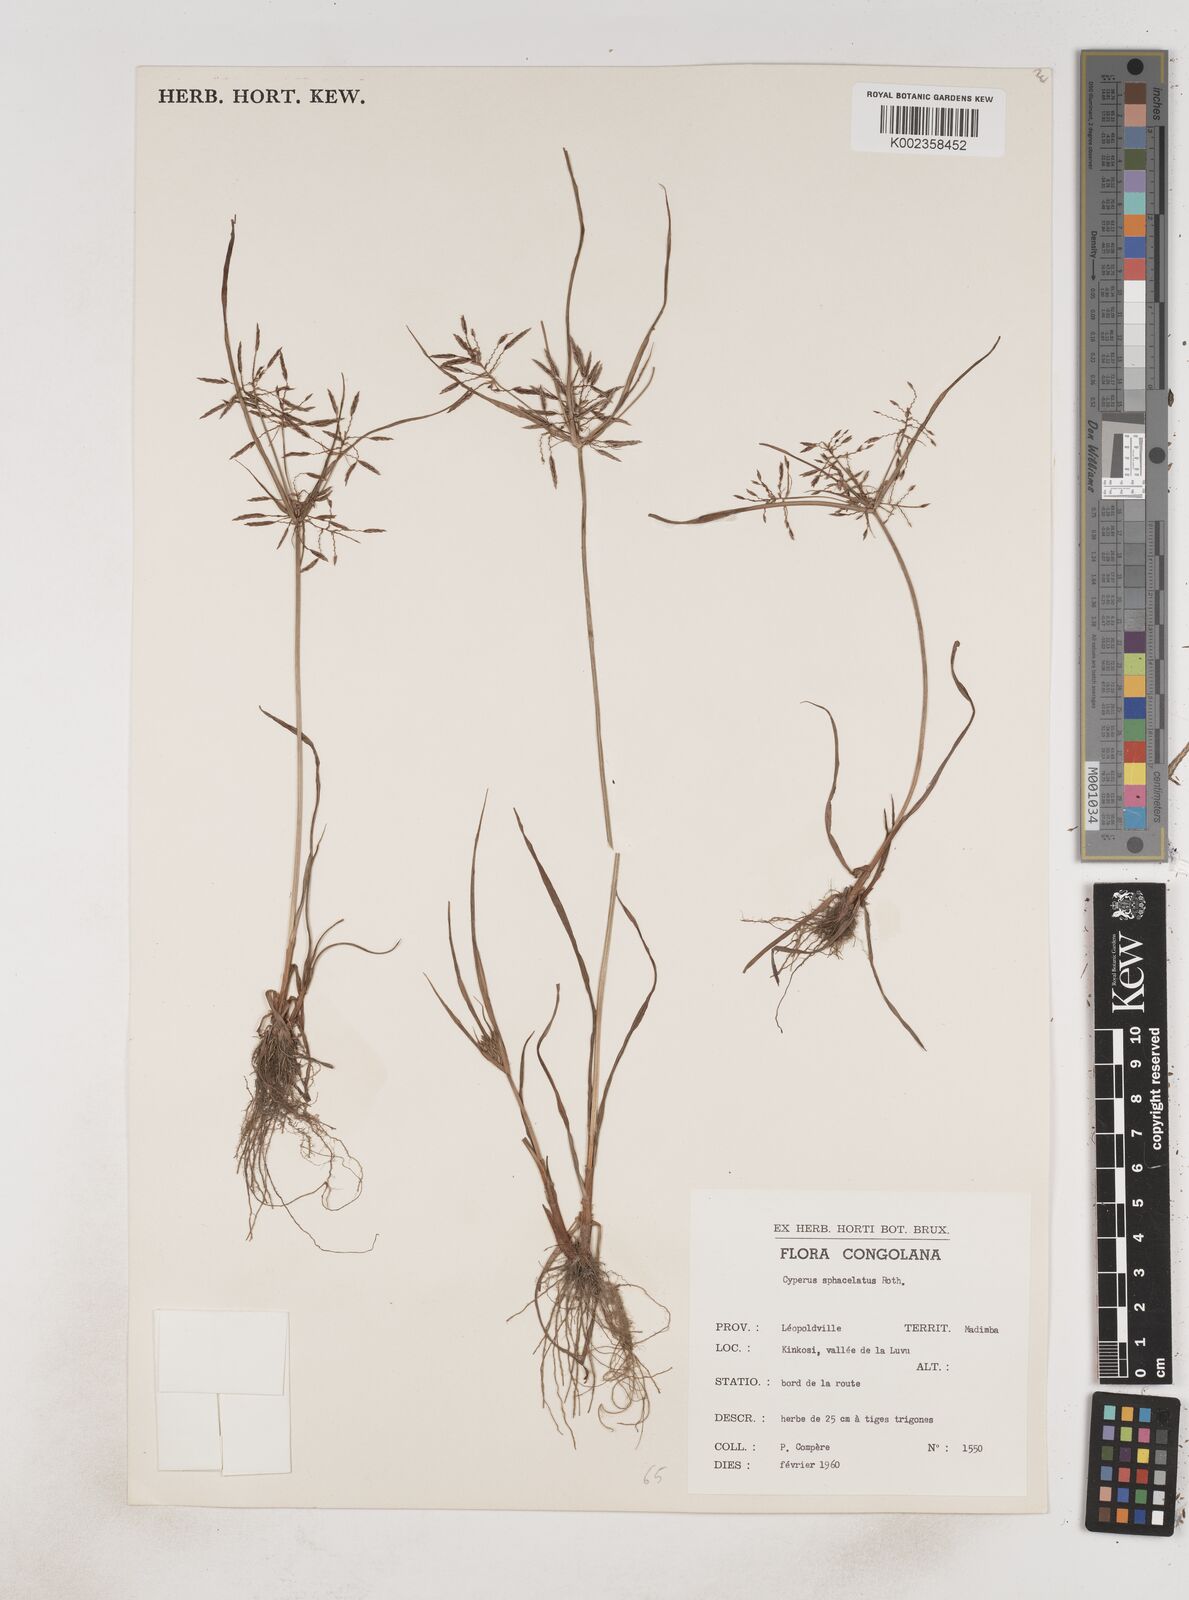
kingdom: Plantae
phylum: Tracheophyta
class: Liliopsida
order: Poales
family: Cyperaceae
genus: Cyperus
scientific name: Cyperus sphacelatus
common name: Roadside flatsedge
